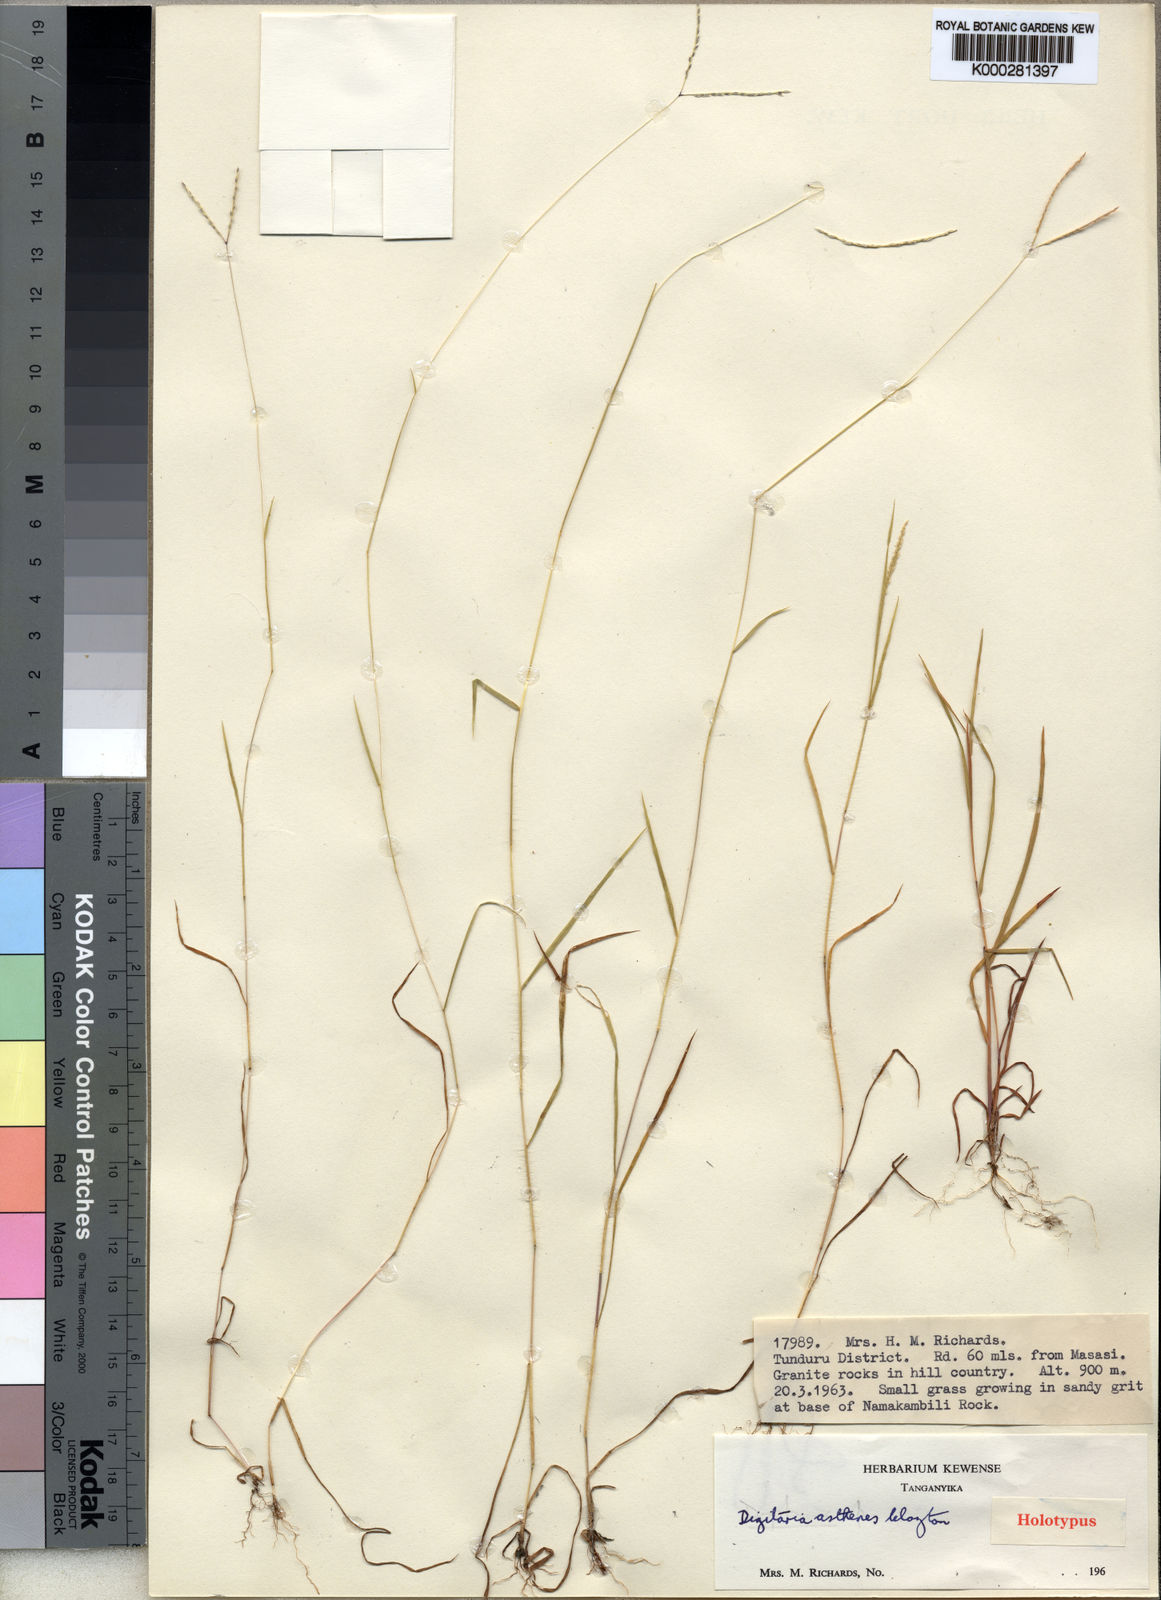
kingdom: Plantae
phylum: Tracheophyta
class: Liliopsida
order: Poales
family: Poaceae
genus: Digitaria
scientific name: Digitaria asthenes
